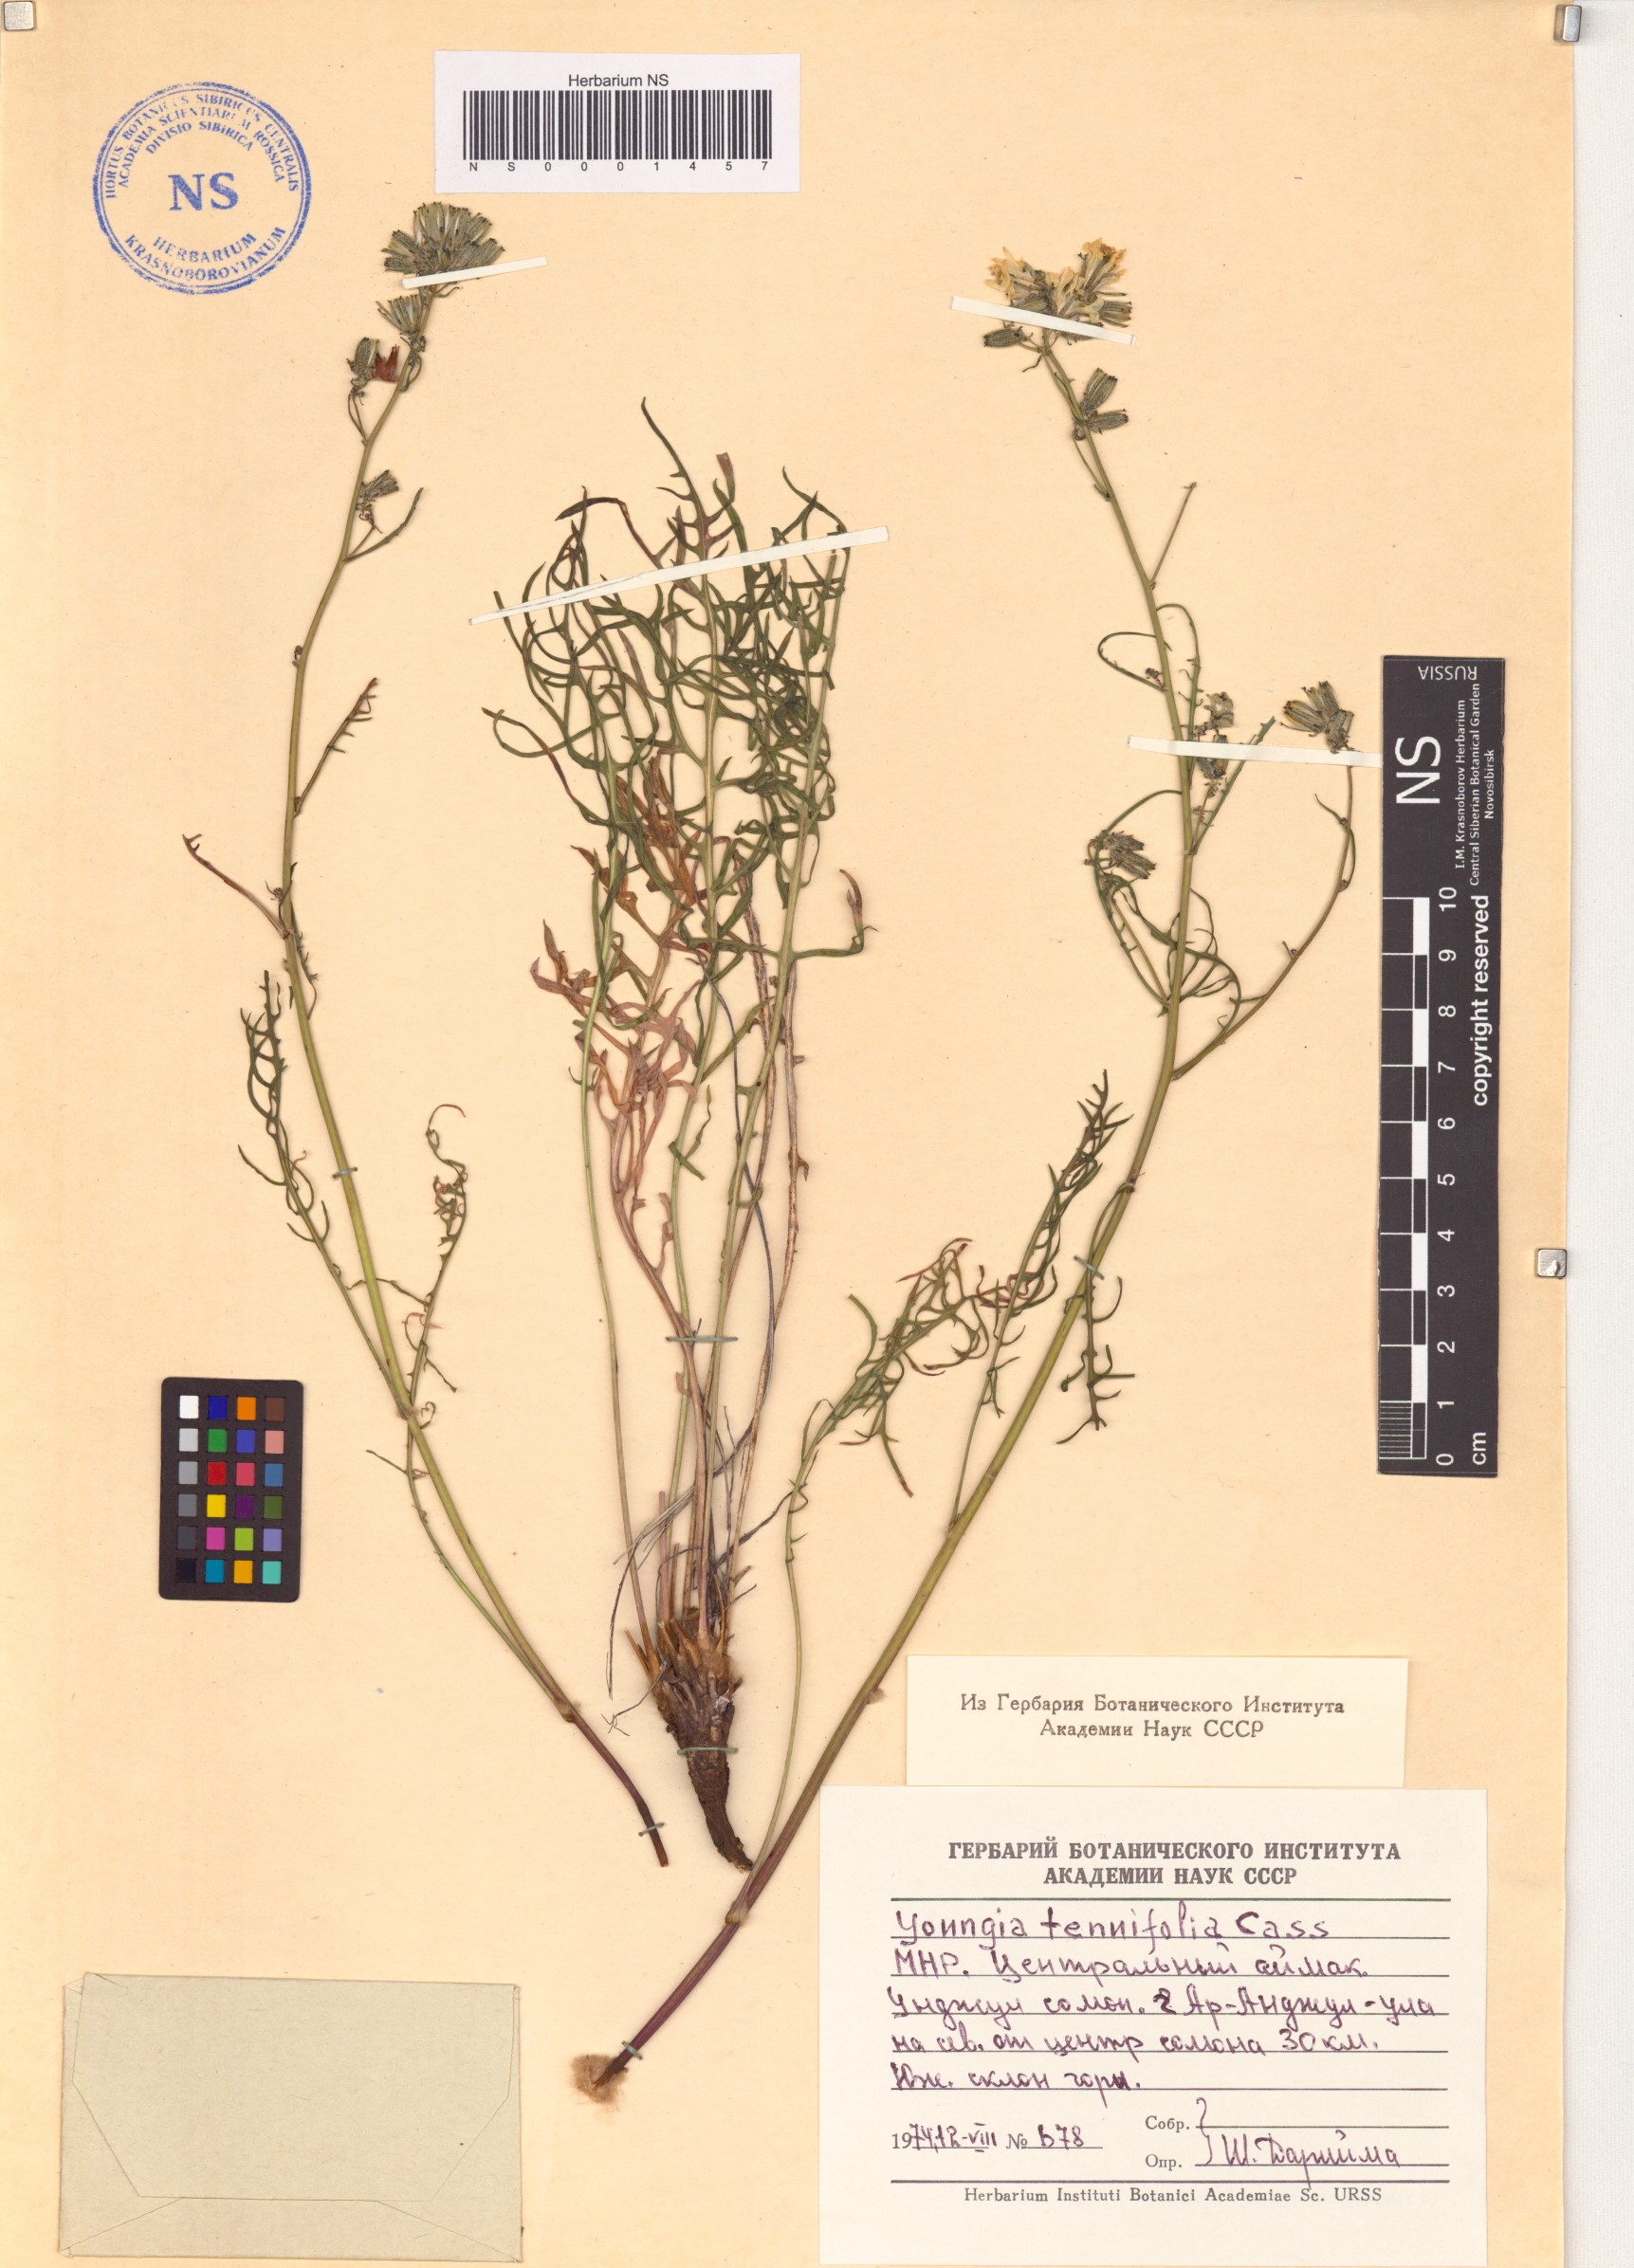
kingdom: Plantae
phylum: Tracheophyta
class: Magnoliopsida
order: Asterales
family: Asteraceae
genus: Crepidiastrum
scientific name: Crepidiastrum tenuifolium
